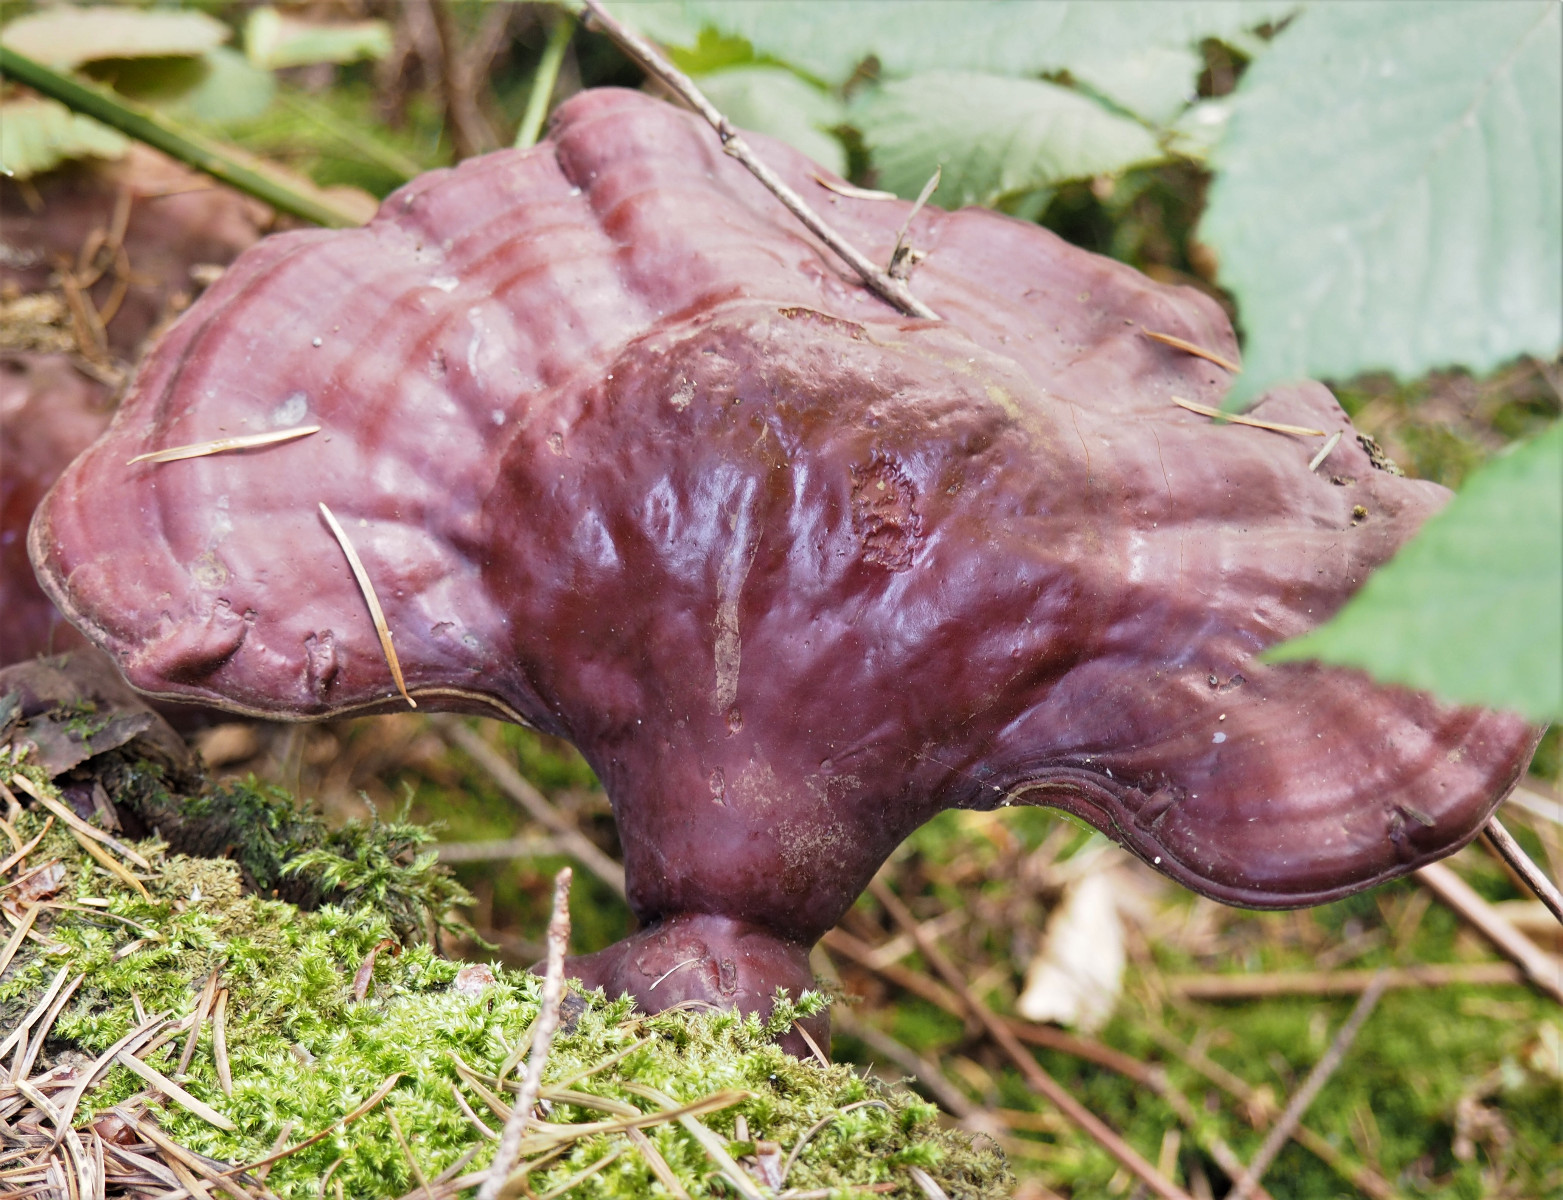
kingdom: Fungi
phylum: Basidiomycota
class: Agaricomycetes
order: Polyporales
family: Polyporaceae
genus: Ganoderma
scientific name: Ganoderma lucidum
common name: skinnende lakporesvamp
